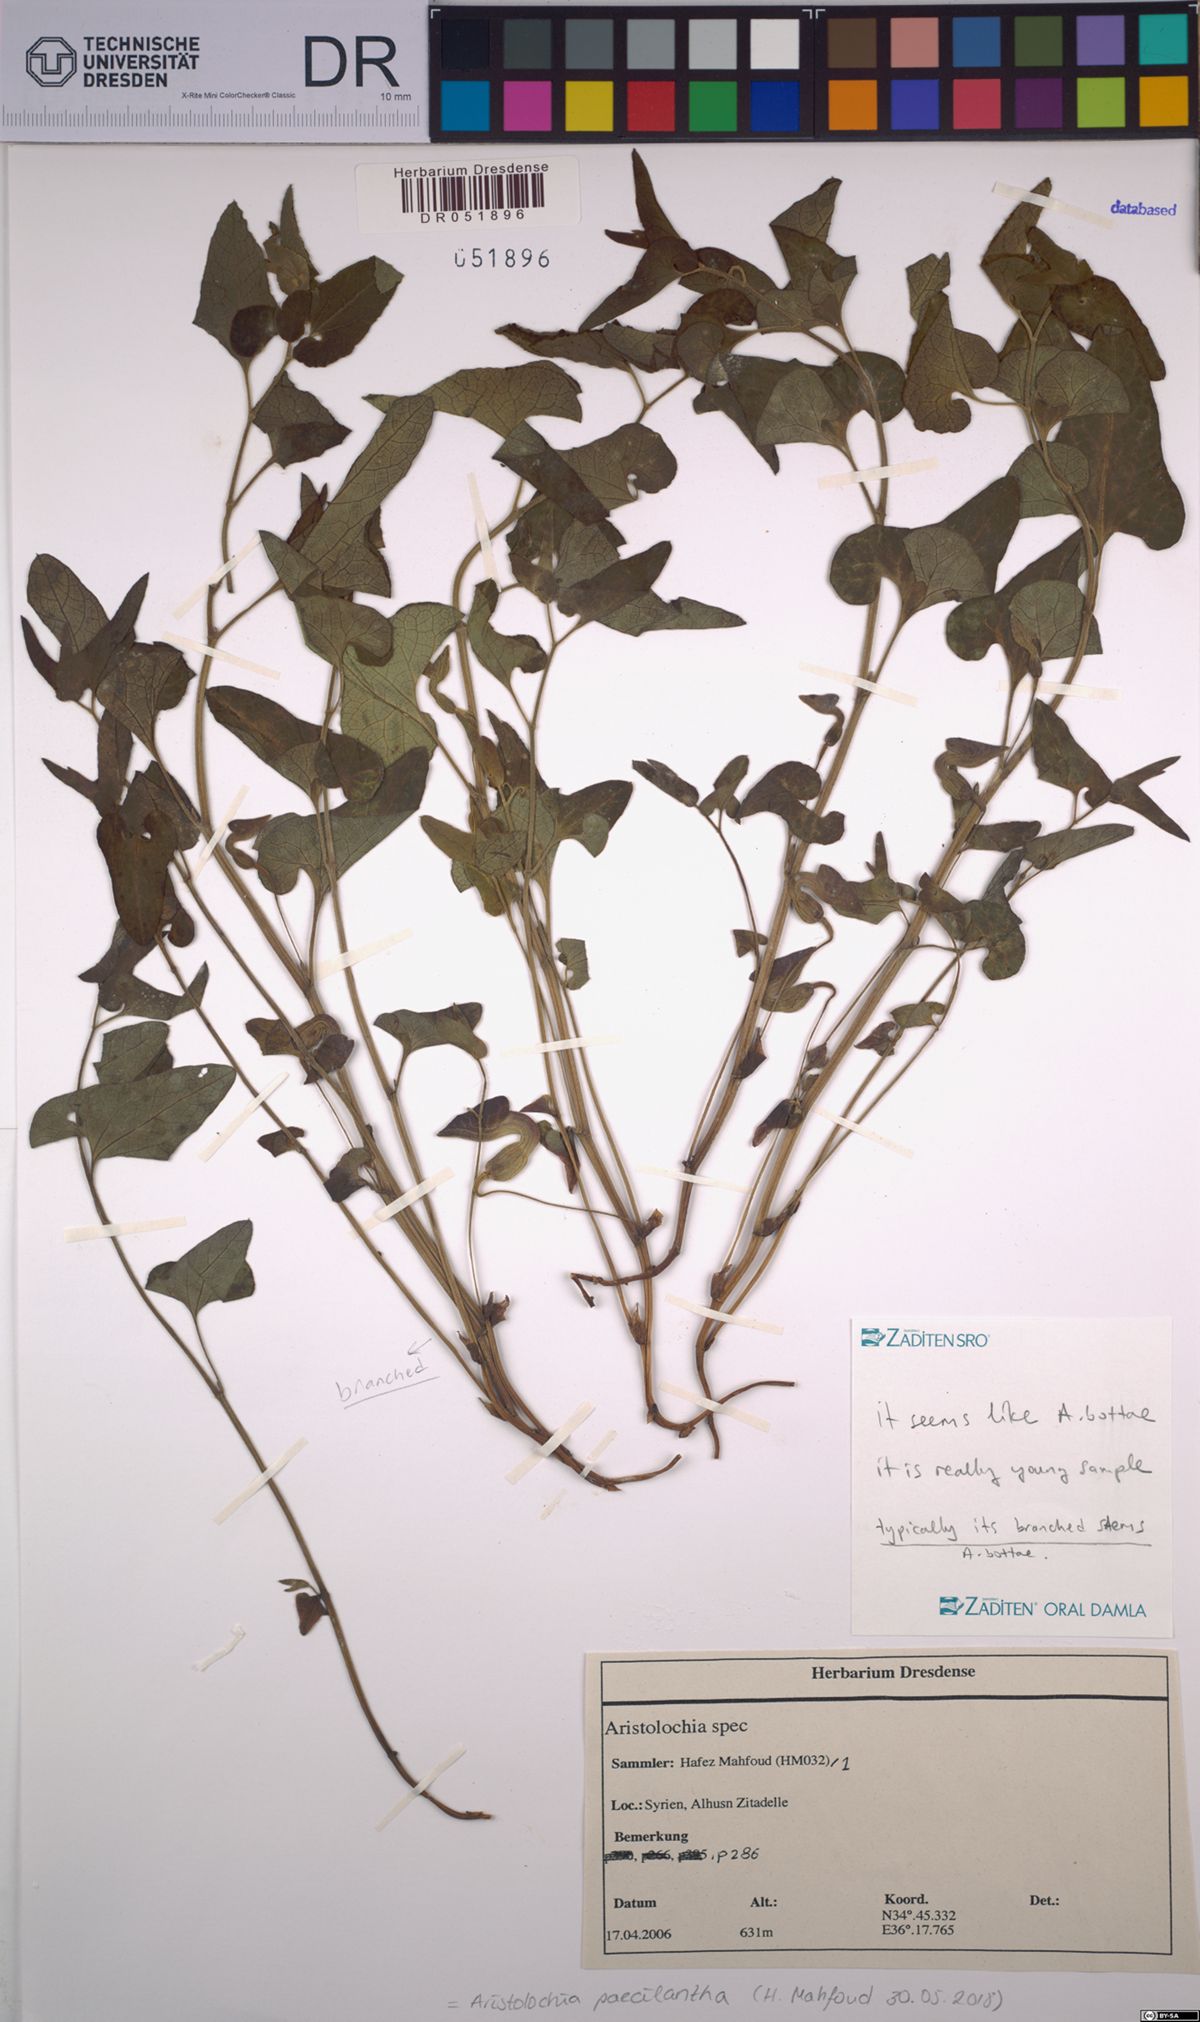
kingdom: Plantae
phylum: Tracheophyta
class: Magnoliopsida
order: Piperales
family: Aristolochiaceae
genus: Aristolochia
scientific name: Aristolochia paecilantha
